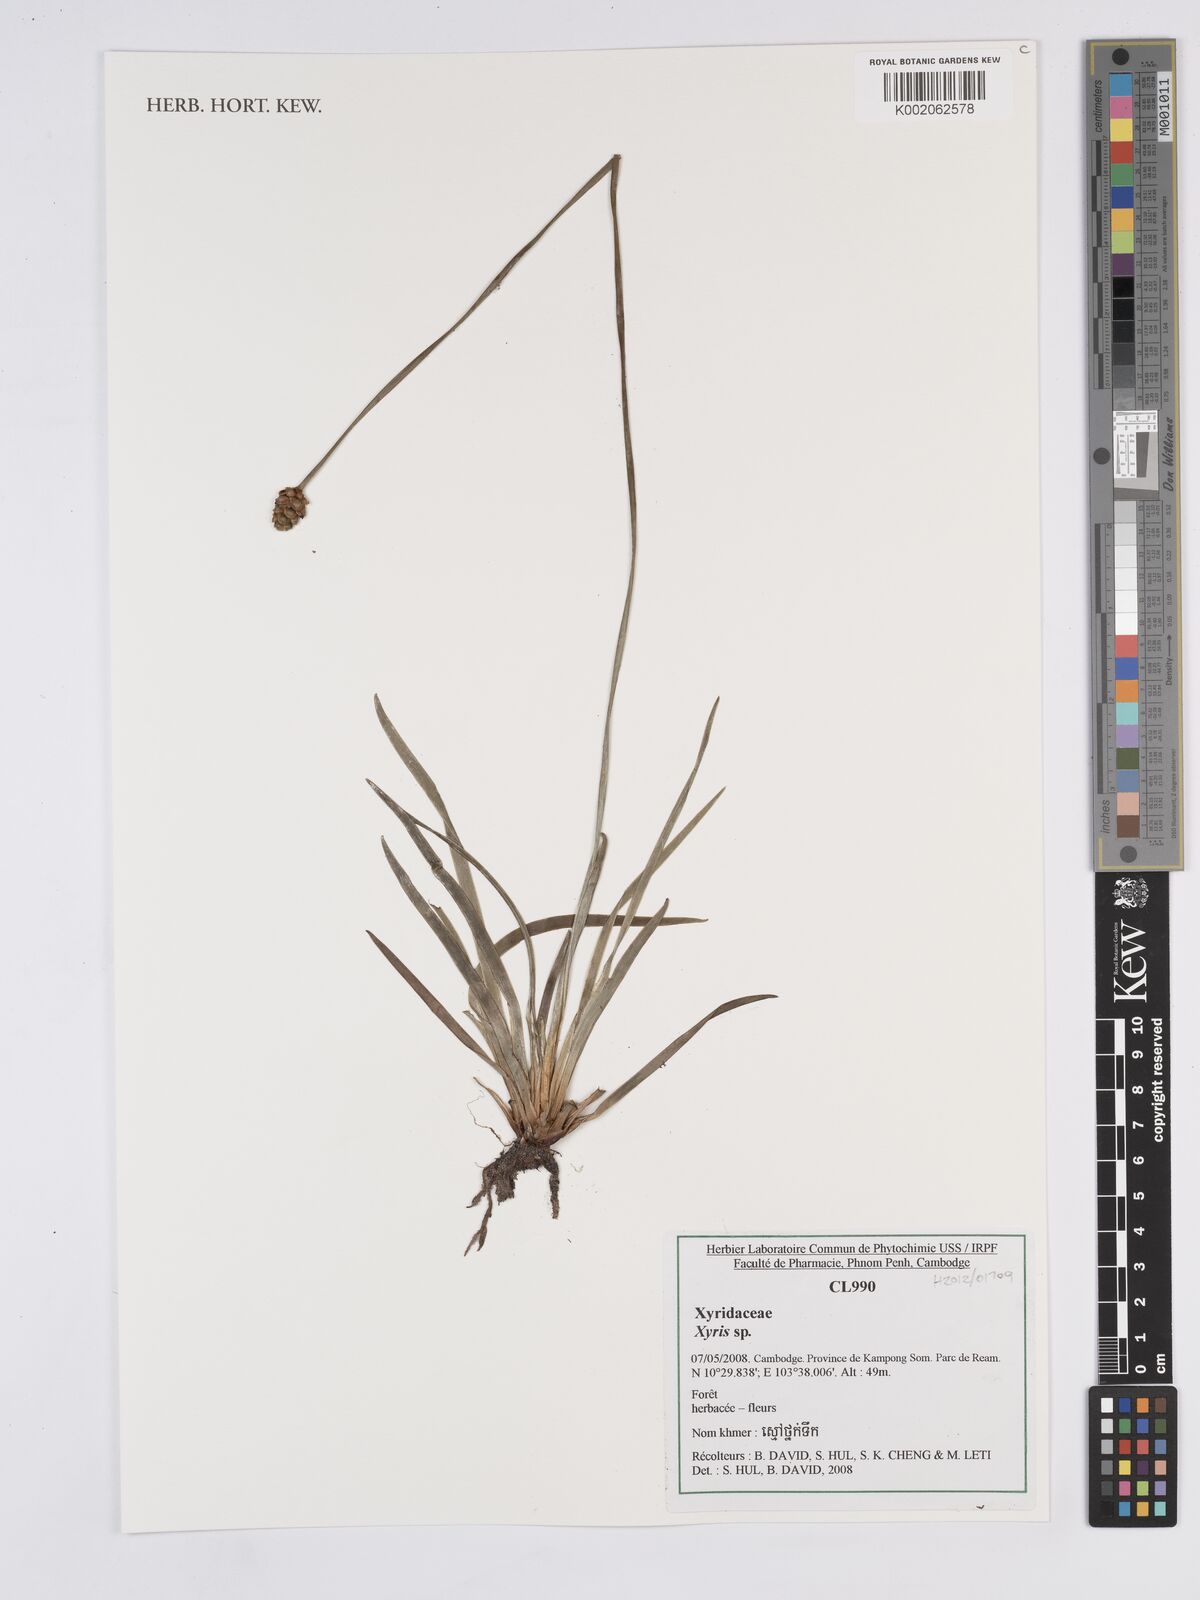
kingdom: Plantae
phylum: Tracheophyta
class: Liliopsida
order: Poales
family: Xyridaceae
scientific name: Xyridaceae
